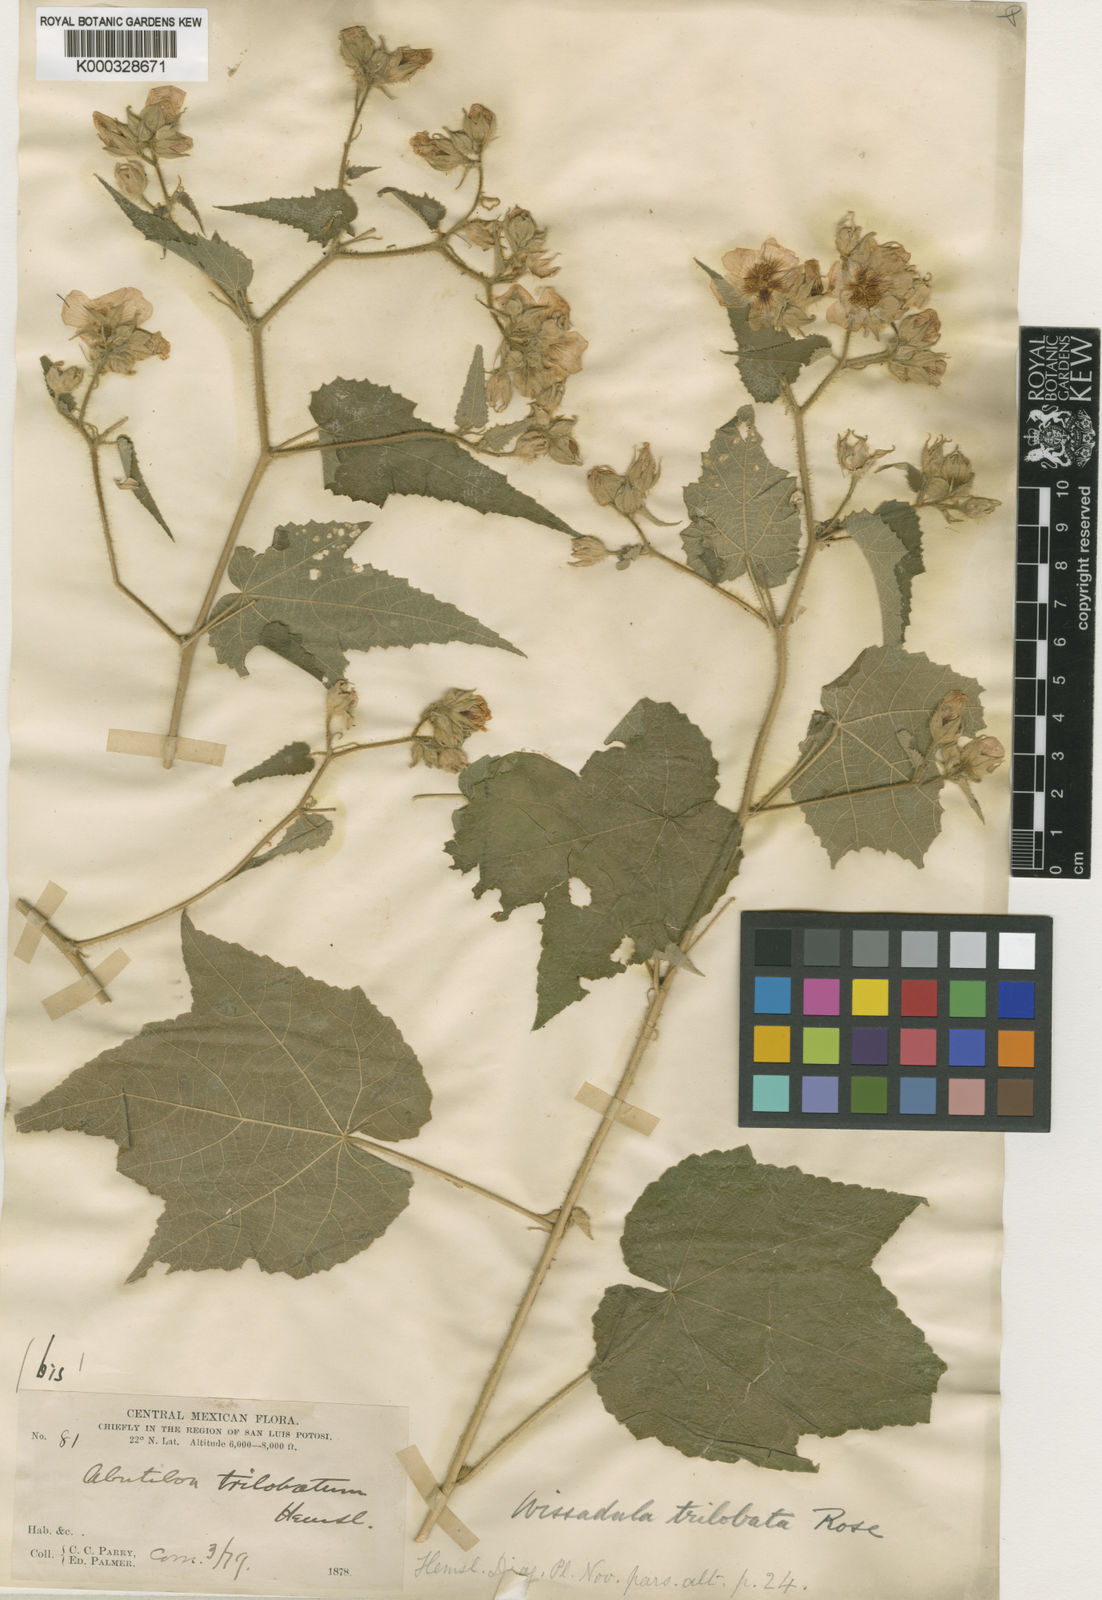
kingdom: Plantae
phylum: Tracheophyta
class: Magnoliopsida
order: Malvales
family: Malvaceae
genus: Allowissadula
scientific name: Allowissadula sessei
